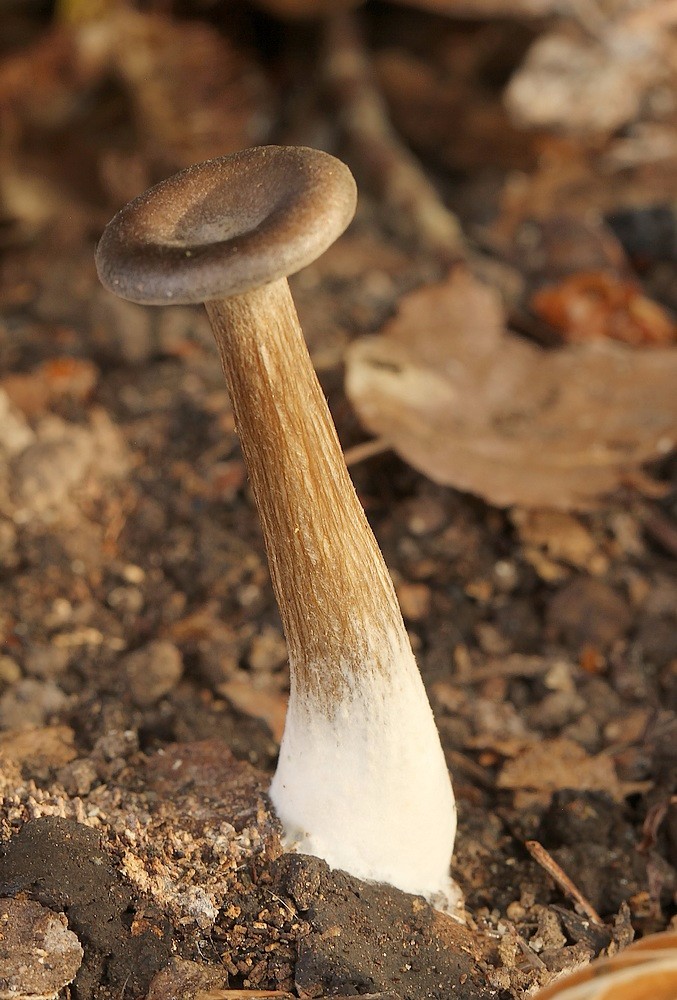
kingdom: Fungi
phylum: Basidiomycota
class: Agaricomycetes
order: Agaricales
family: Pseudoclitocybaceae
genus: Pseudoclitocybe
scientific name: Pseudoclitocybe cyathiformis
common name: almindelig bægertragthat
